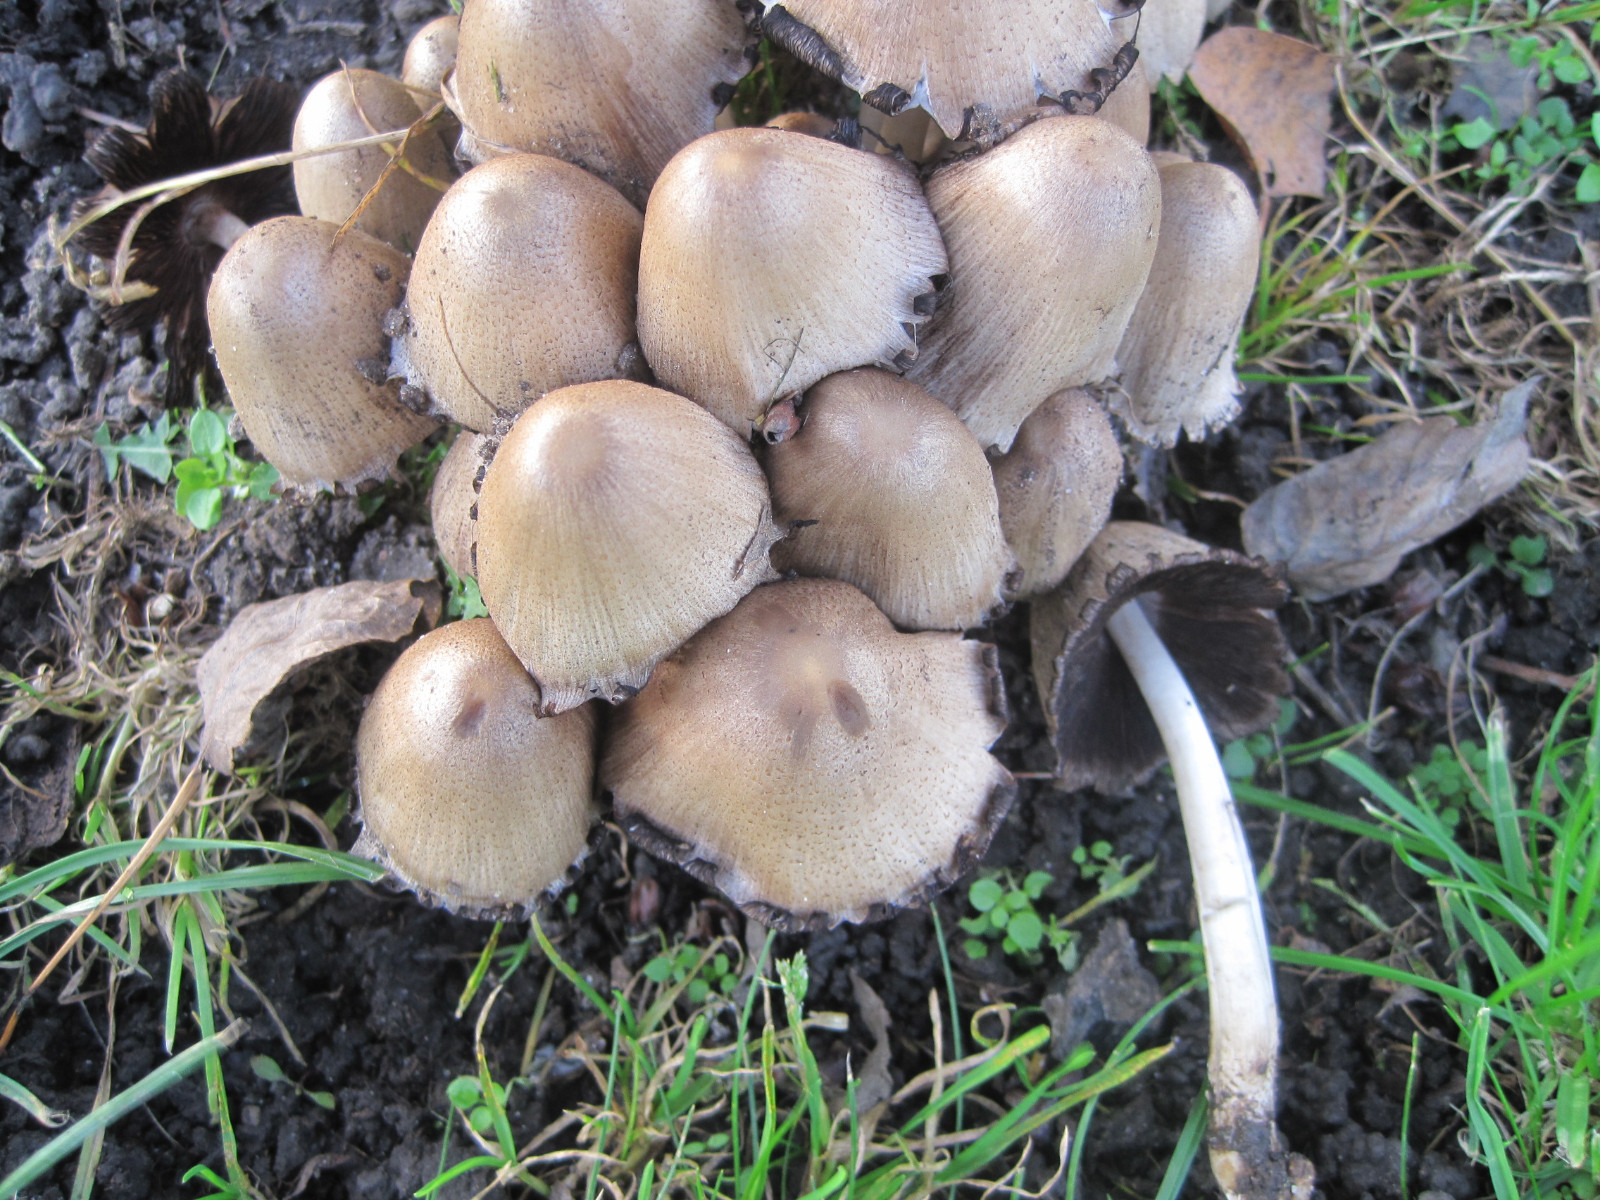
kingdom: Fungi
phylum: Basidiomycota
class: Agaricomycetes
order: Agaricales
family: Psathyrellaceae
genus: Coprinopsis
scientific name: Coprinopsis romagnesiana
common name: brunskællet blækhat
